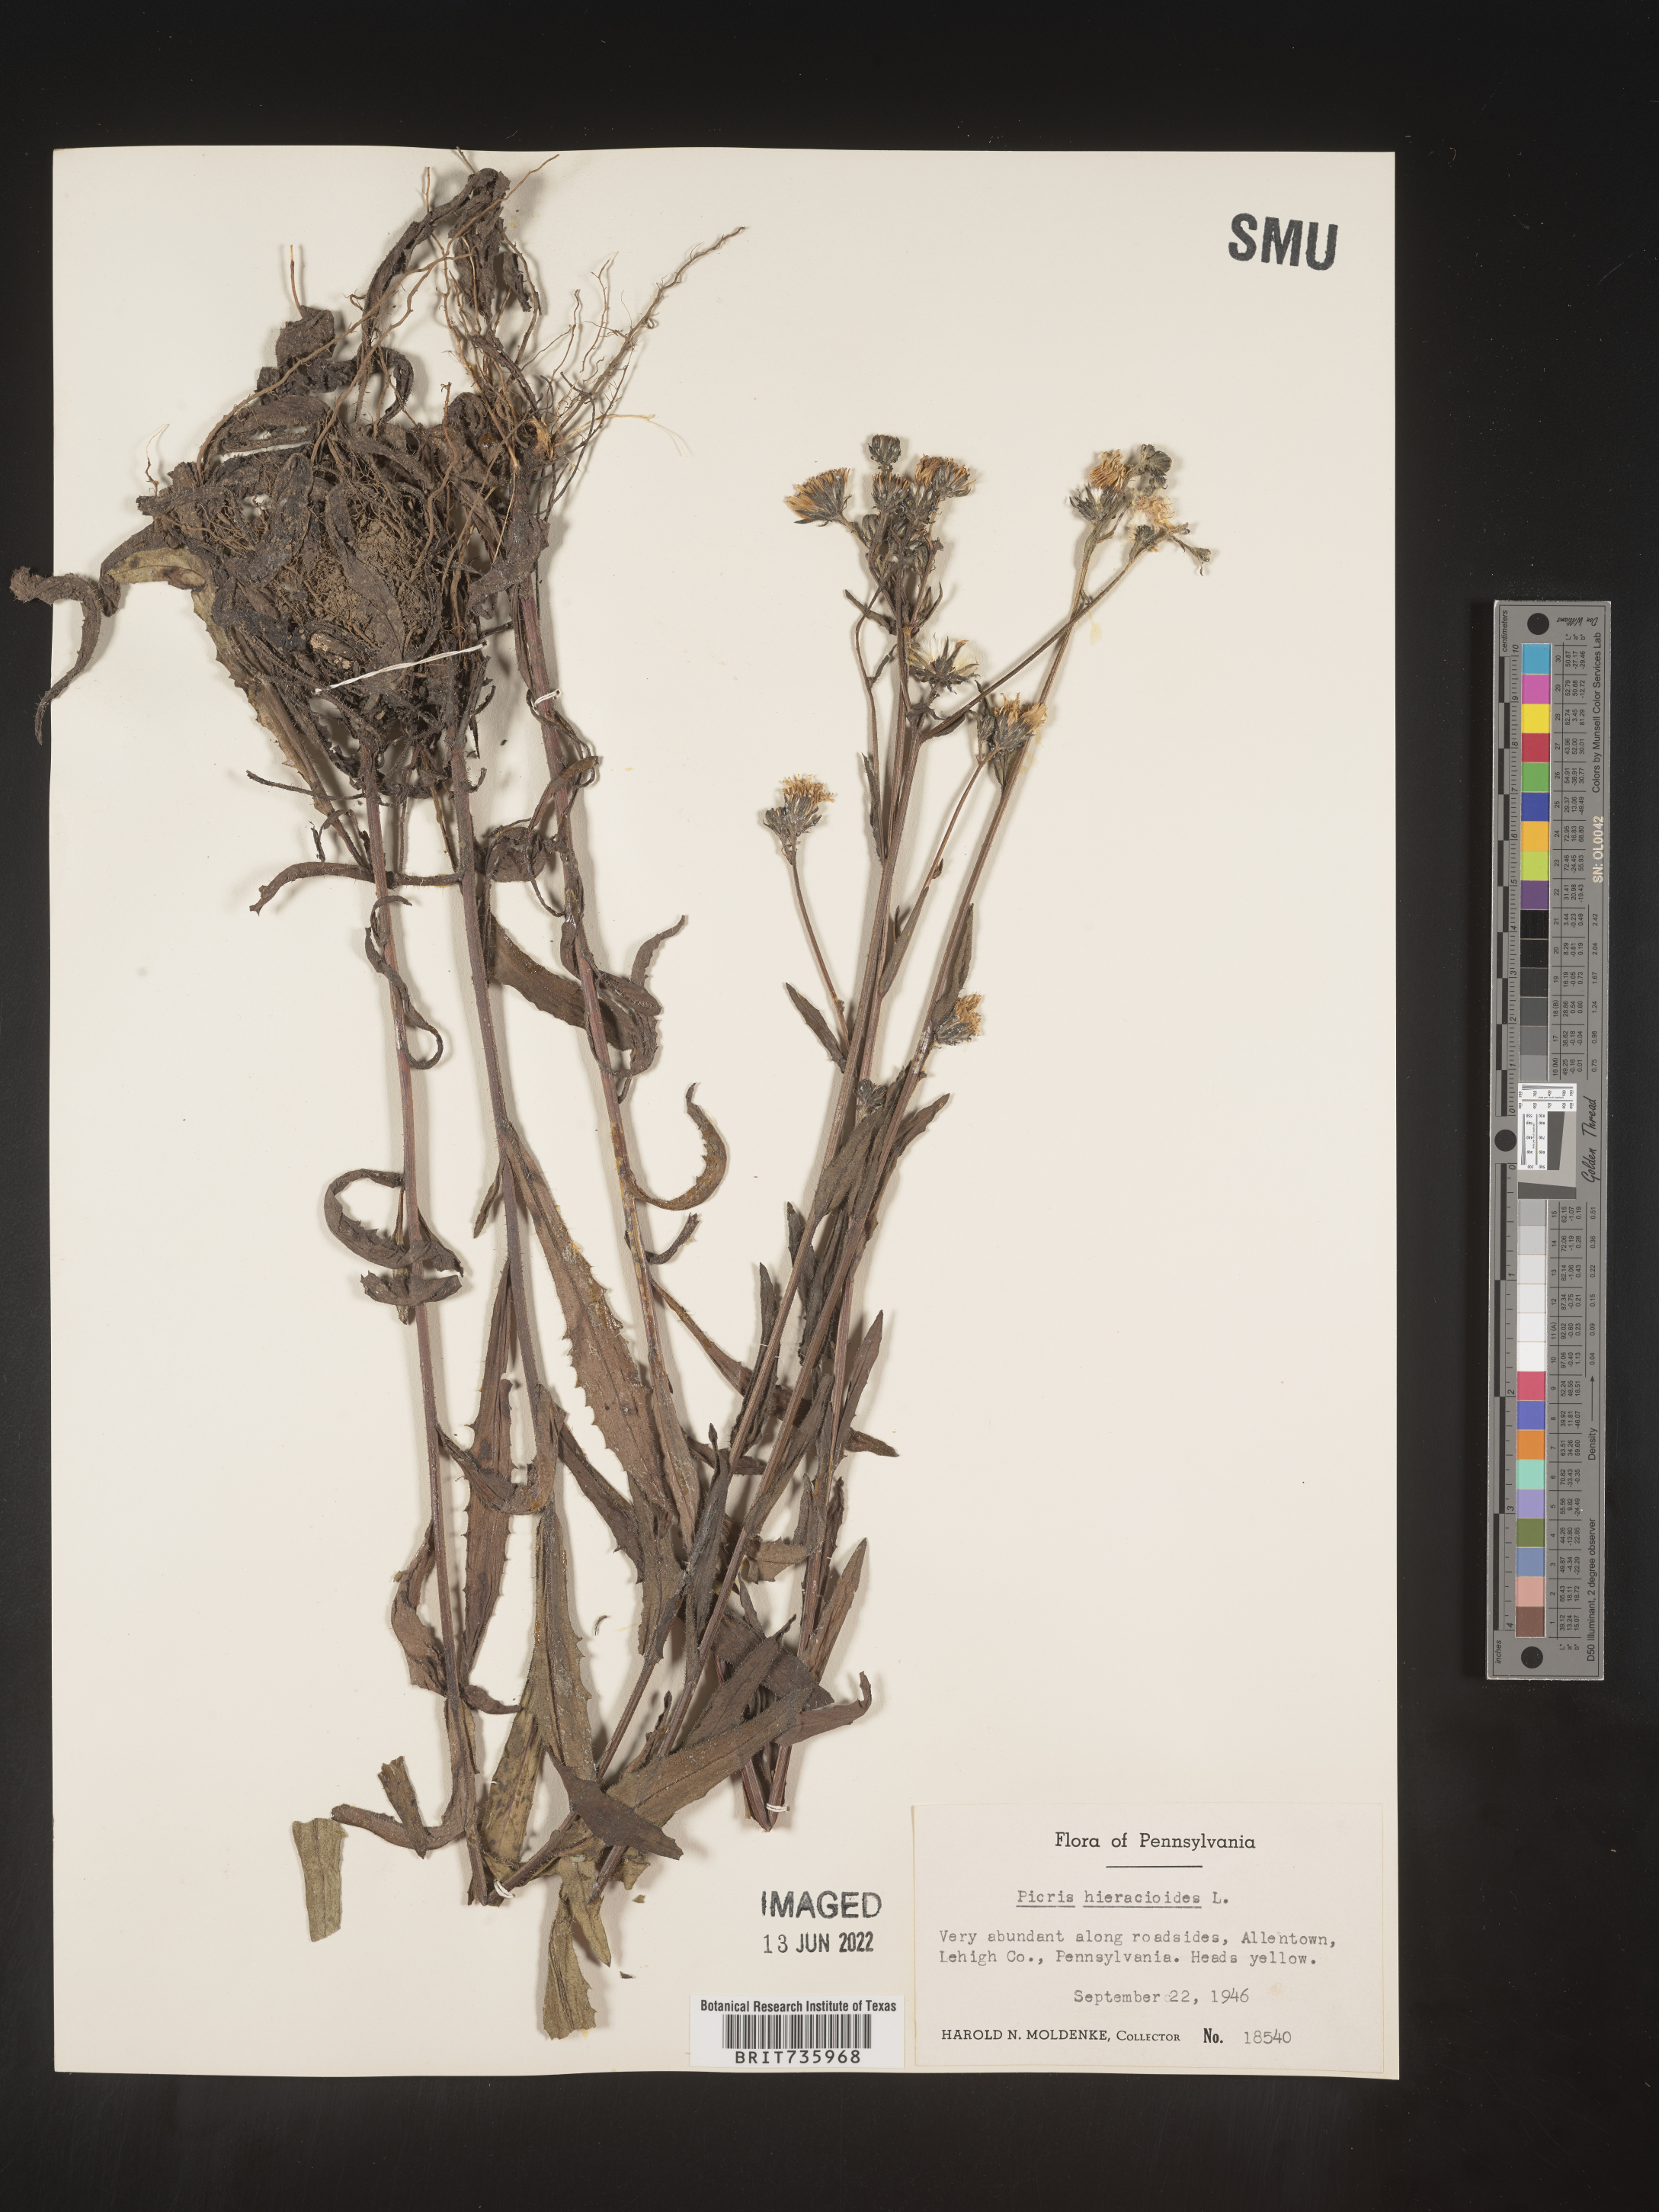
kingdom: Plantae
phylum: Tracheophyta
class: Magnoliopsida
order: Asterales
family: Asteraceae
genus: Picris
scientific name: Picris hieracioides
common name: Hawkweed oxtongue
